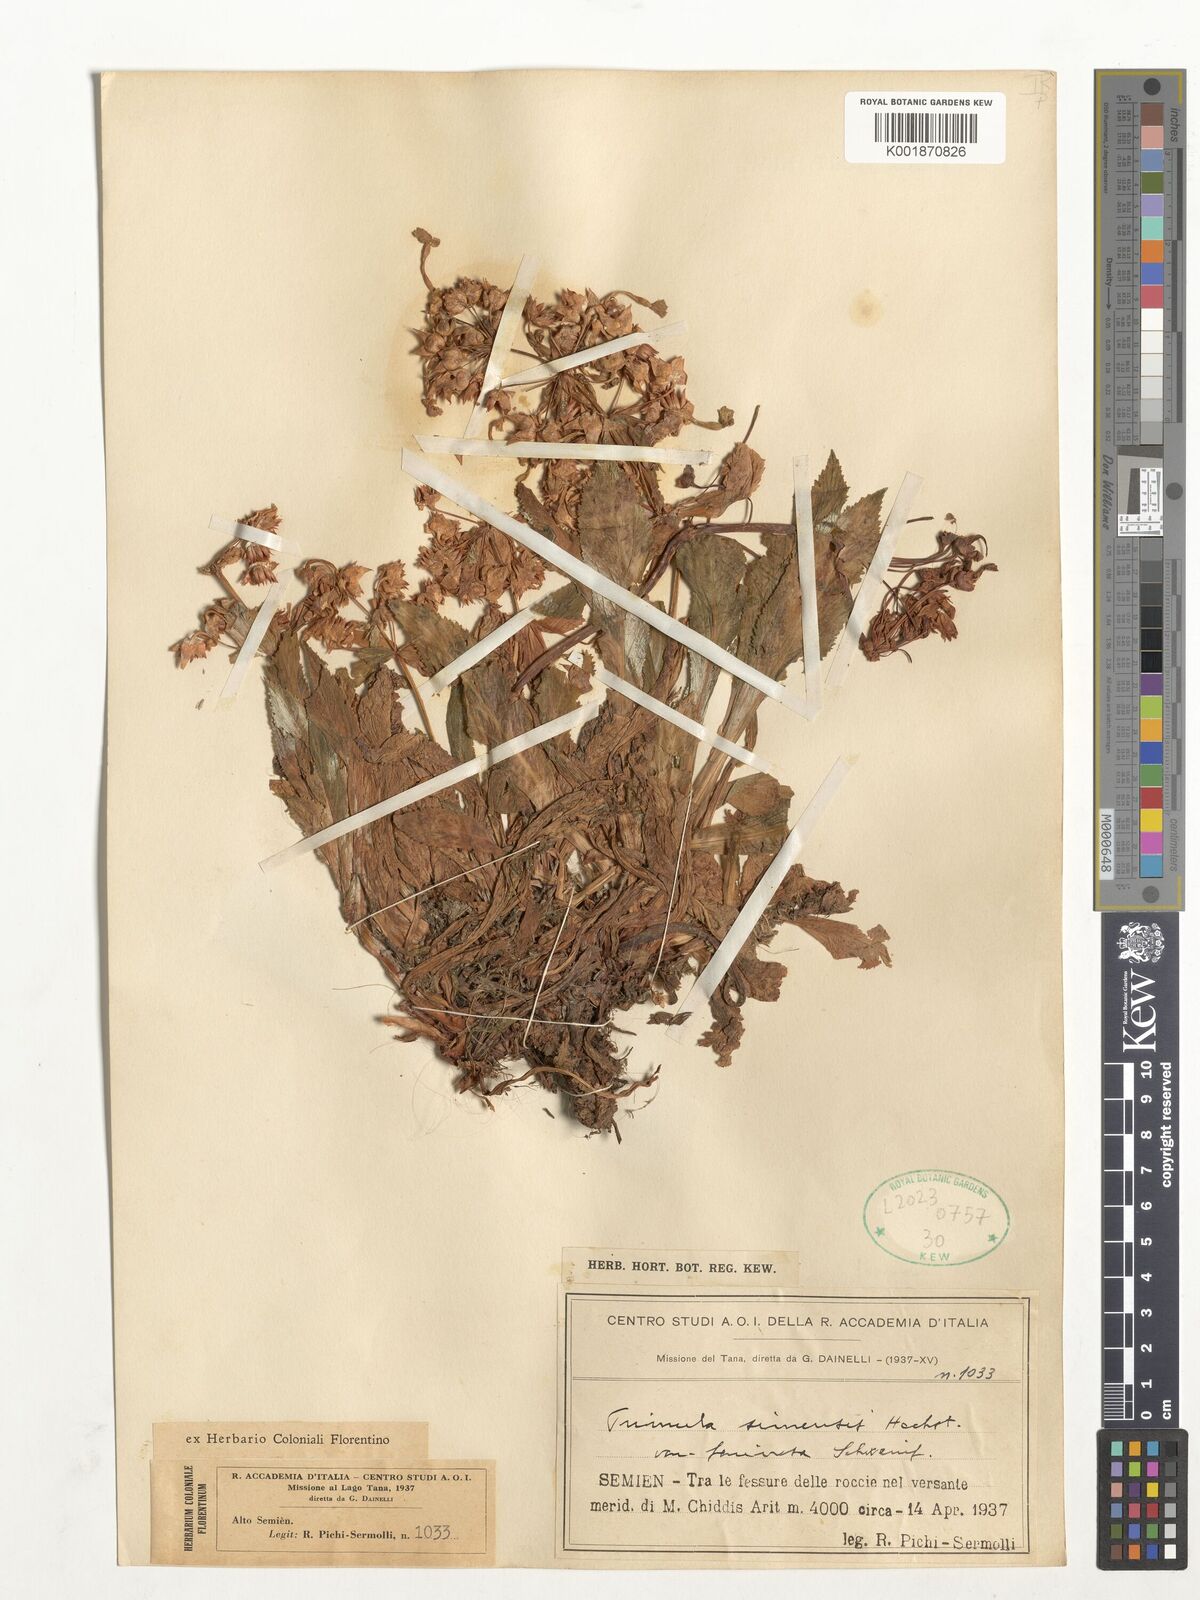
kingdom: Plantae
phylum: Tracheophyta
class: Magnoliopsida
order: Ericales
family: Primulaceae
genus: Evotrochis
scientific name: Evotrochis simensis
